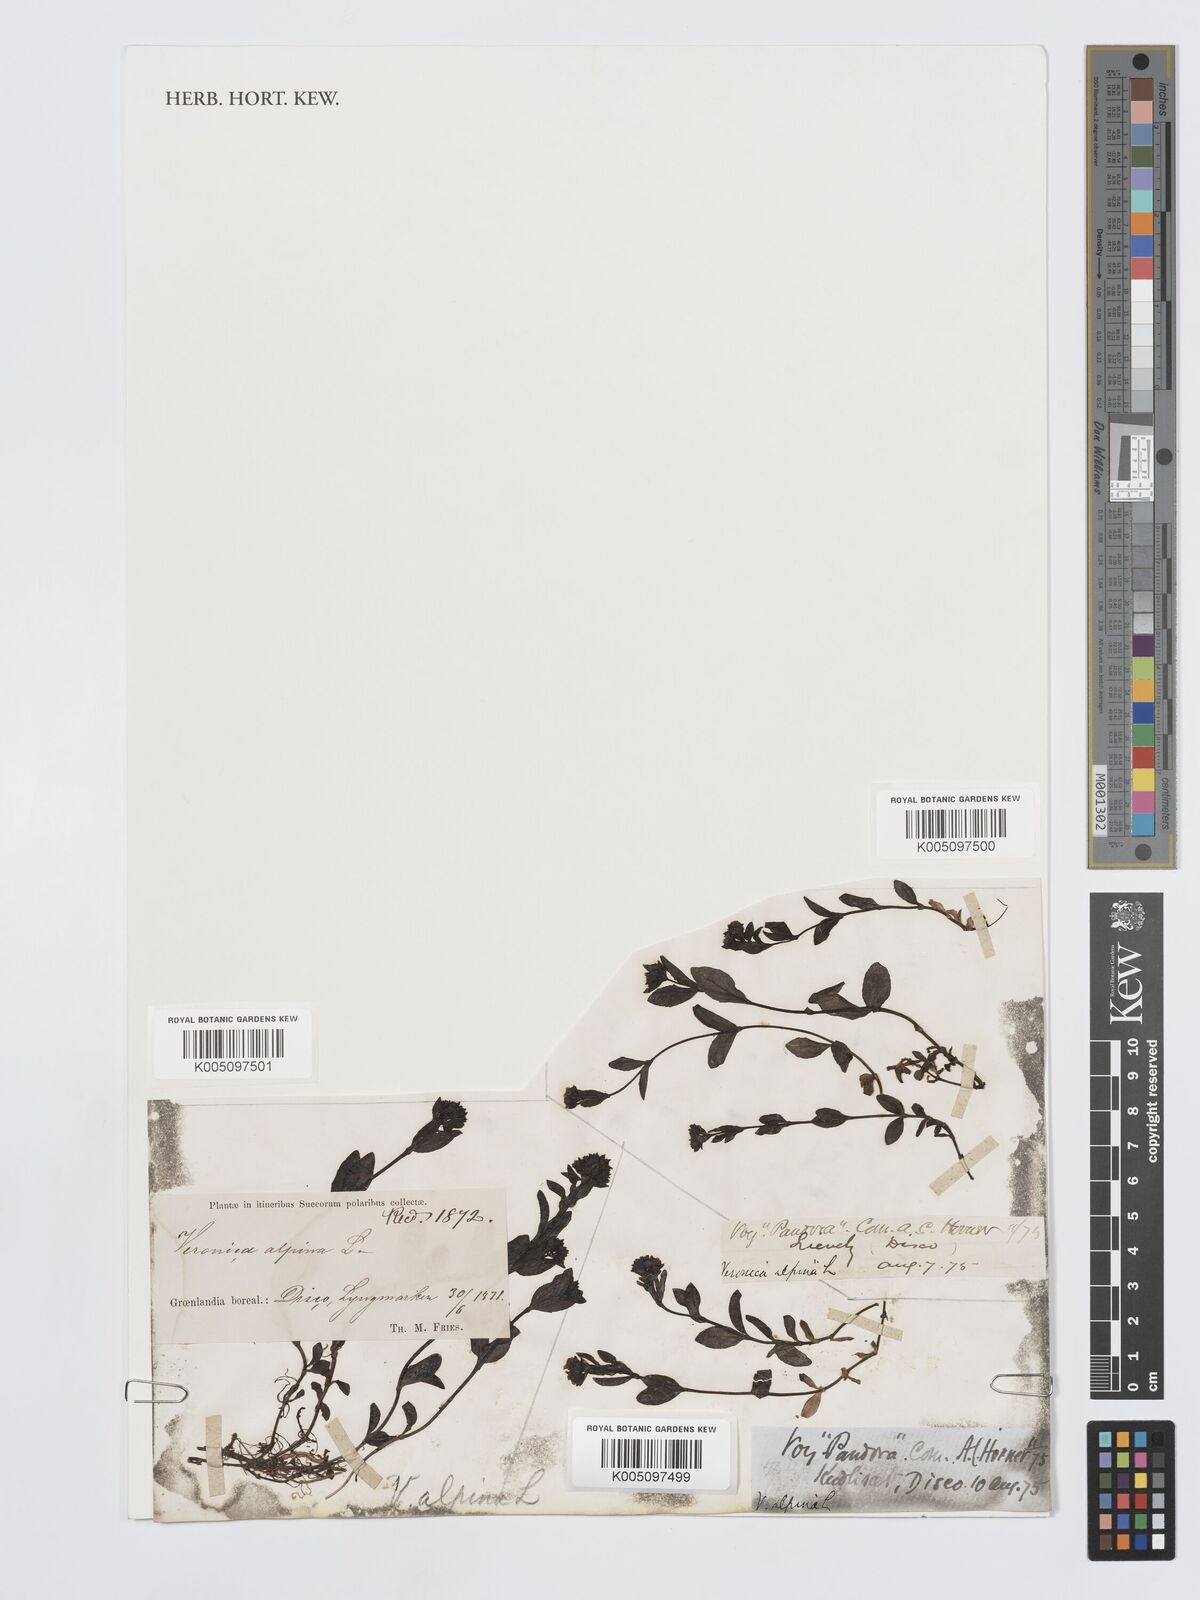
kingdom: Plantae
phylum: Tracheophyta
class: Magnoliopsida
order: Lamiales
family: Plantaginaceae
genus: Veronica
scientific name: Veronica alpina
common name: Alpine speedwell
